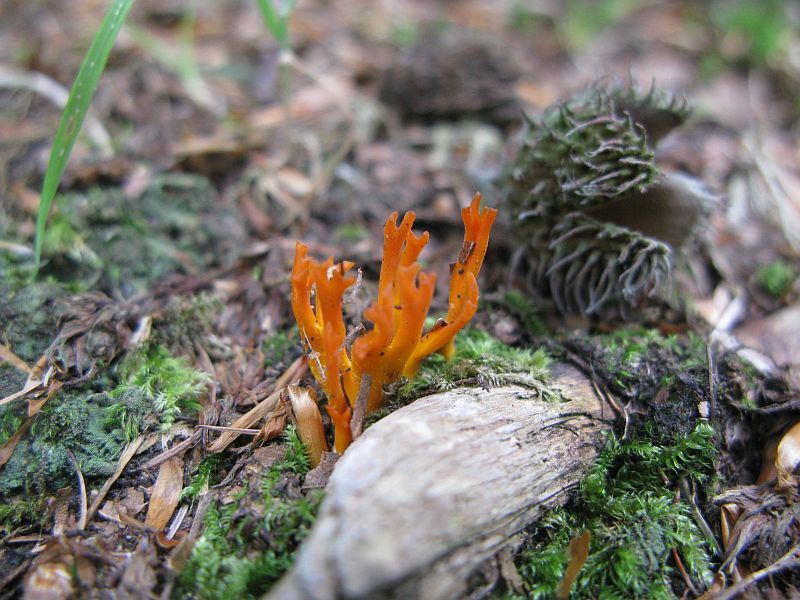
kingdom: Fungi
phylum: Basidiomycota
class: Dacrymycetes
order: Dacrymycetales
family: Dacrymycetaceae
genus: Calocera
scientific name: Calocera viscosa
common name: almindelig guldgaffel
